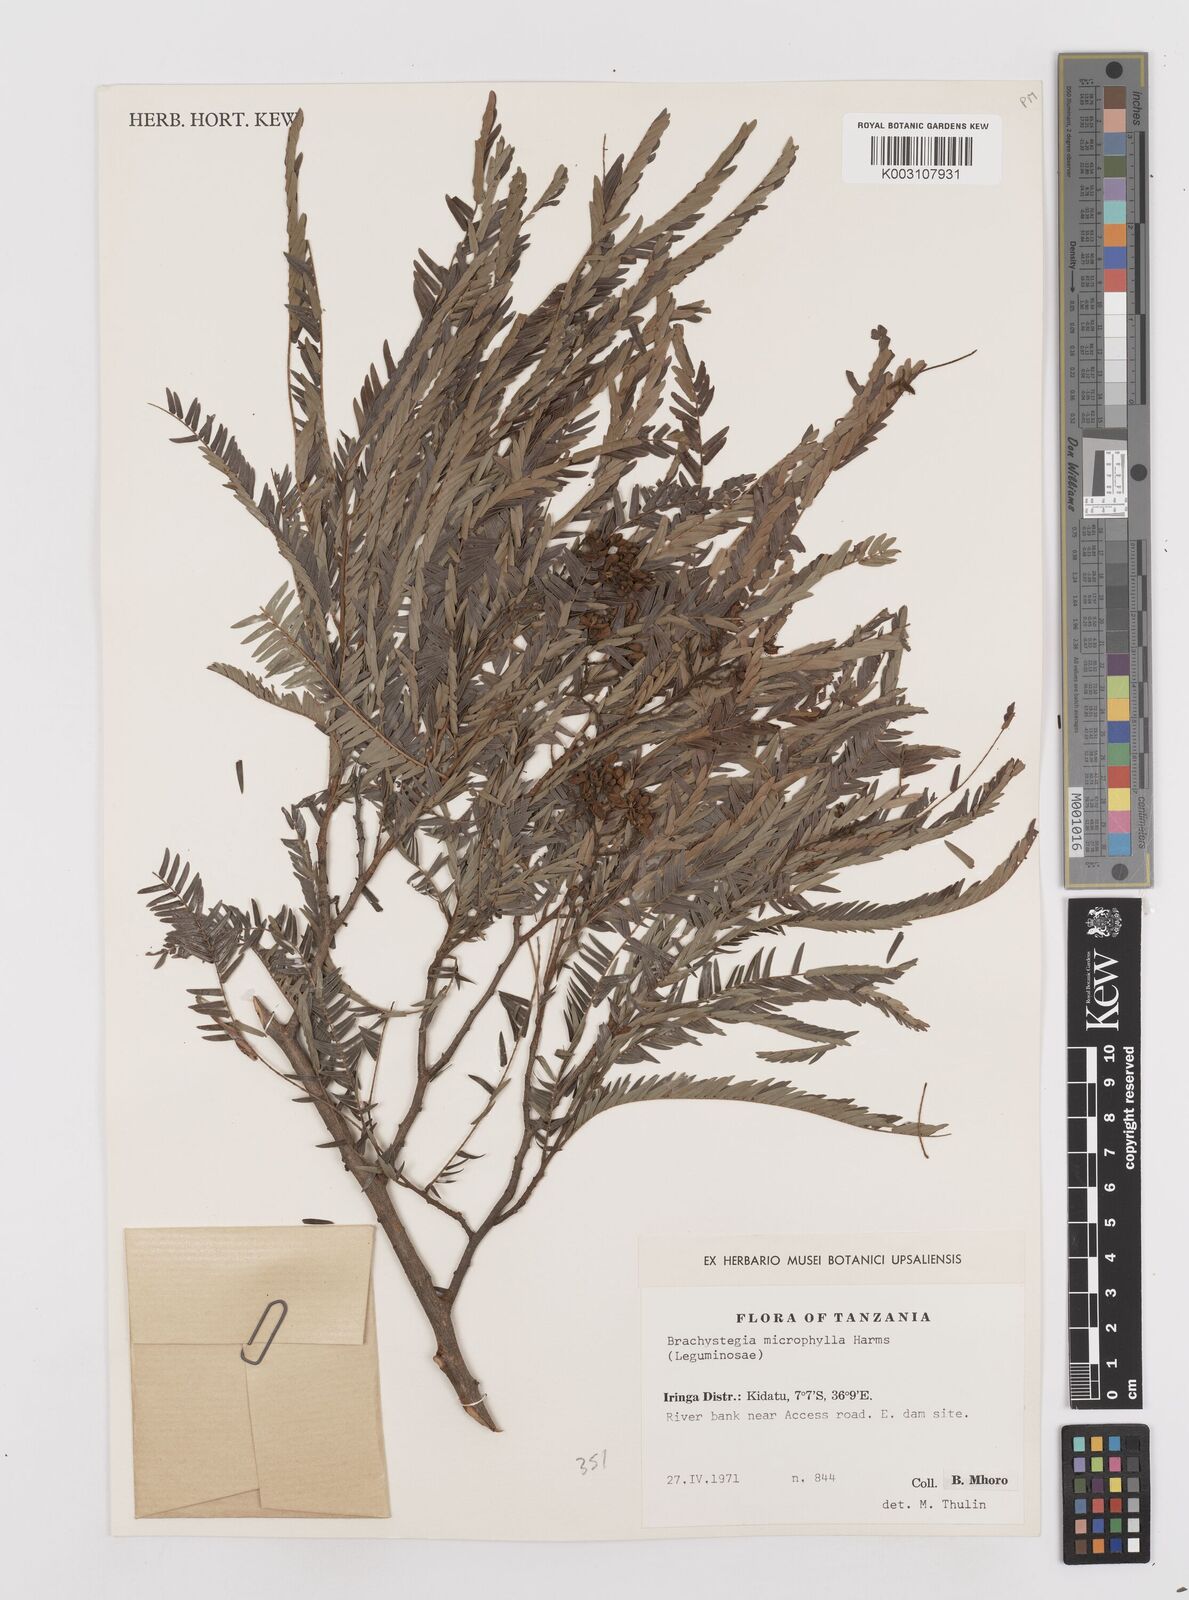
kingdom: Plantae
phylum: Tracheophyta
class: Magnoliopsida
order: Fabales
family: Fabaceae
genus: Brachystegia
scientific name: Brachystegia tamarindoides
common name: Mountain acacia
